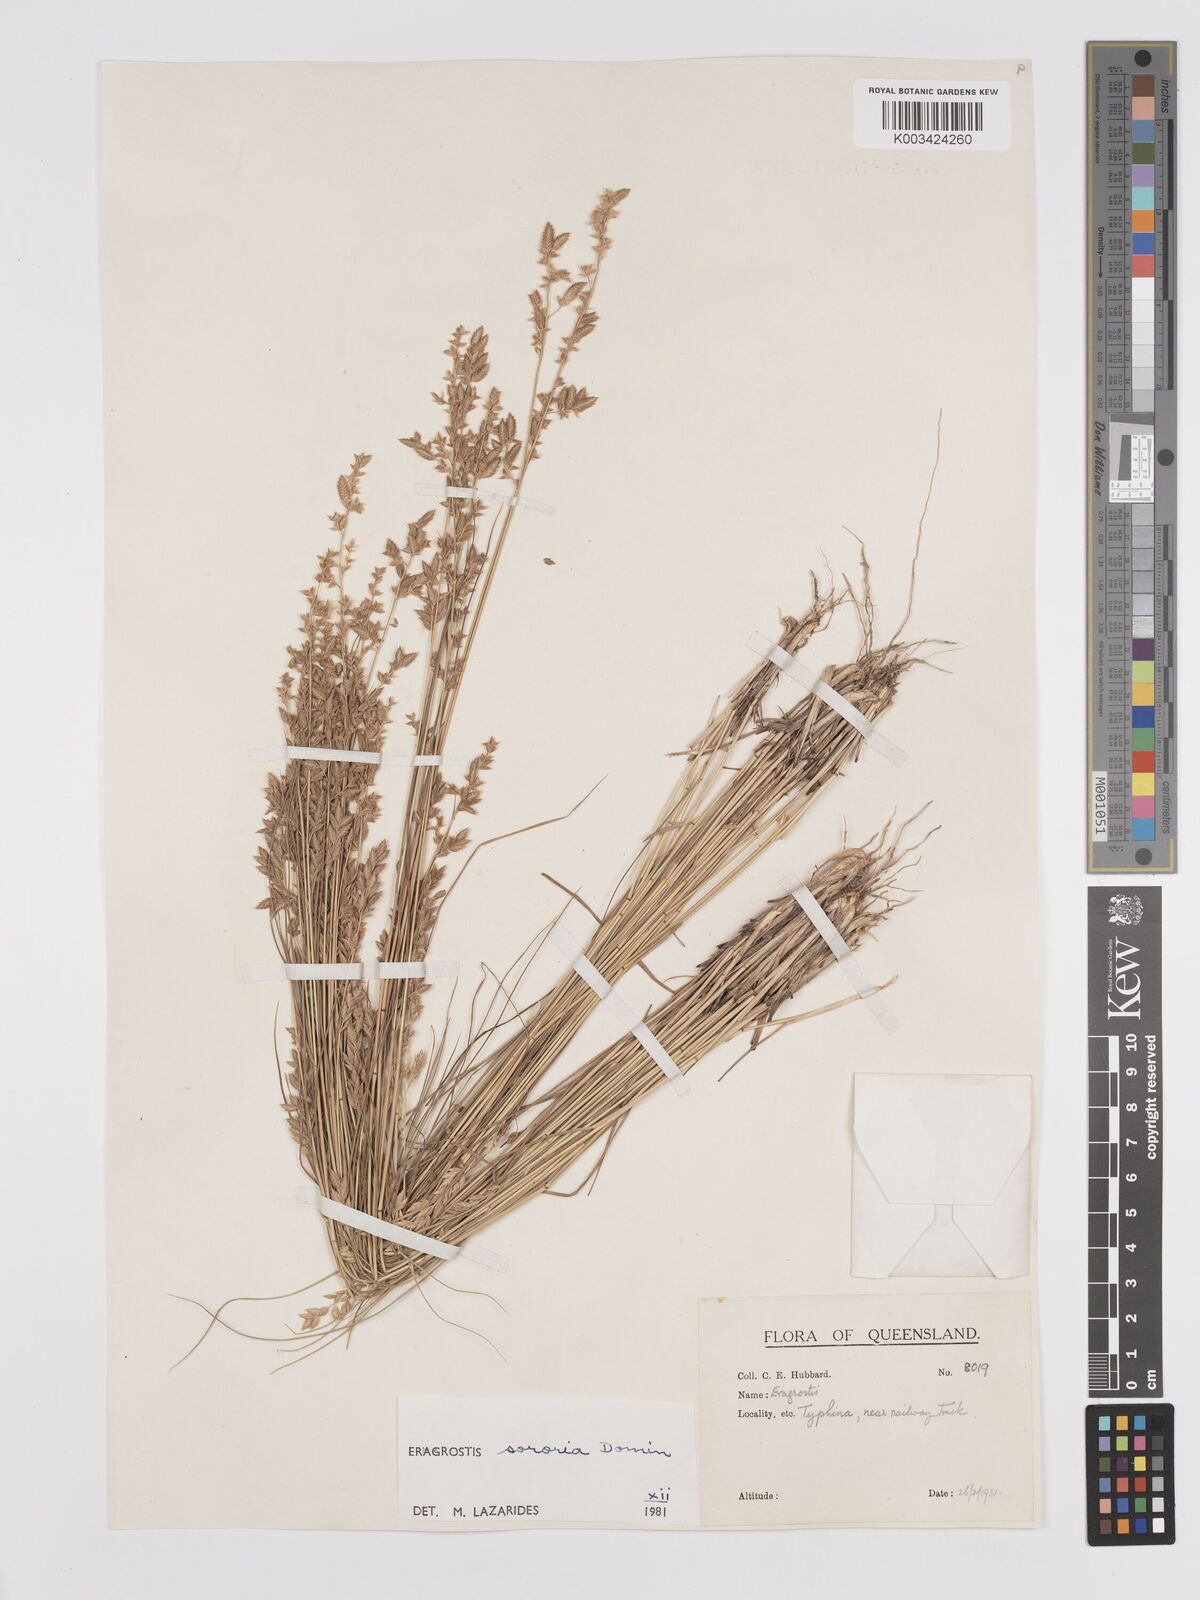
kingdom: Plantae
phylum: Tracheophyta
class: Liliopsida
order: Poales
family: Poaceae
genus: Eragrostis
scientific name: Eragrostis sororia
